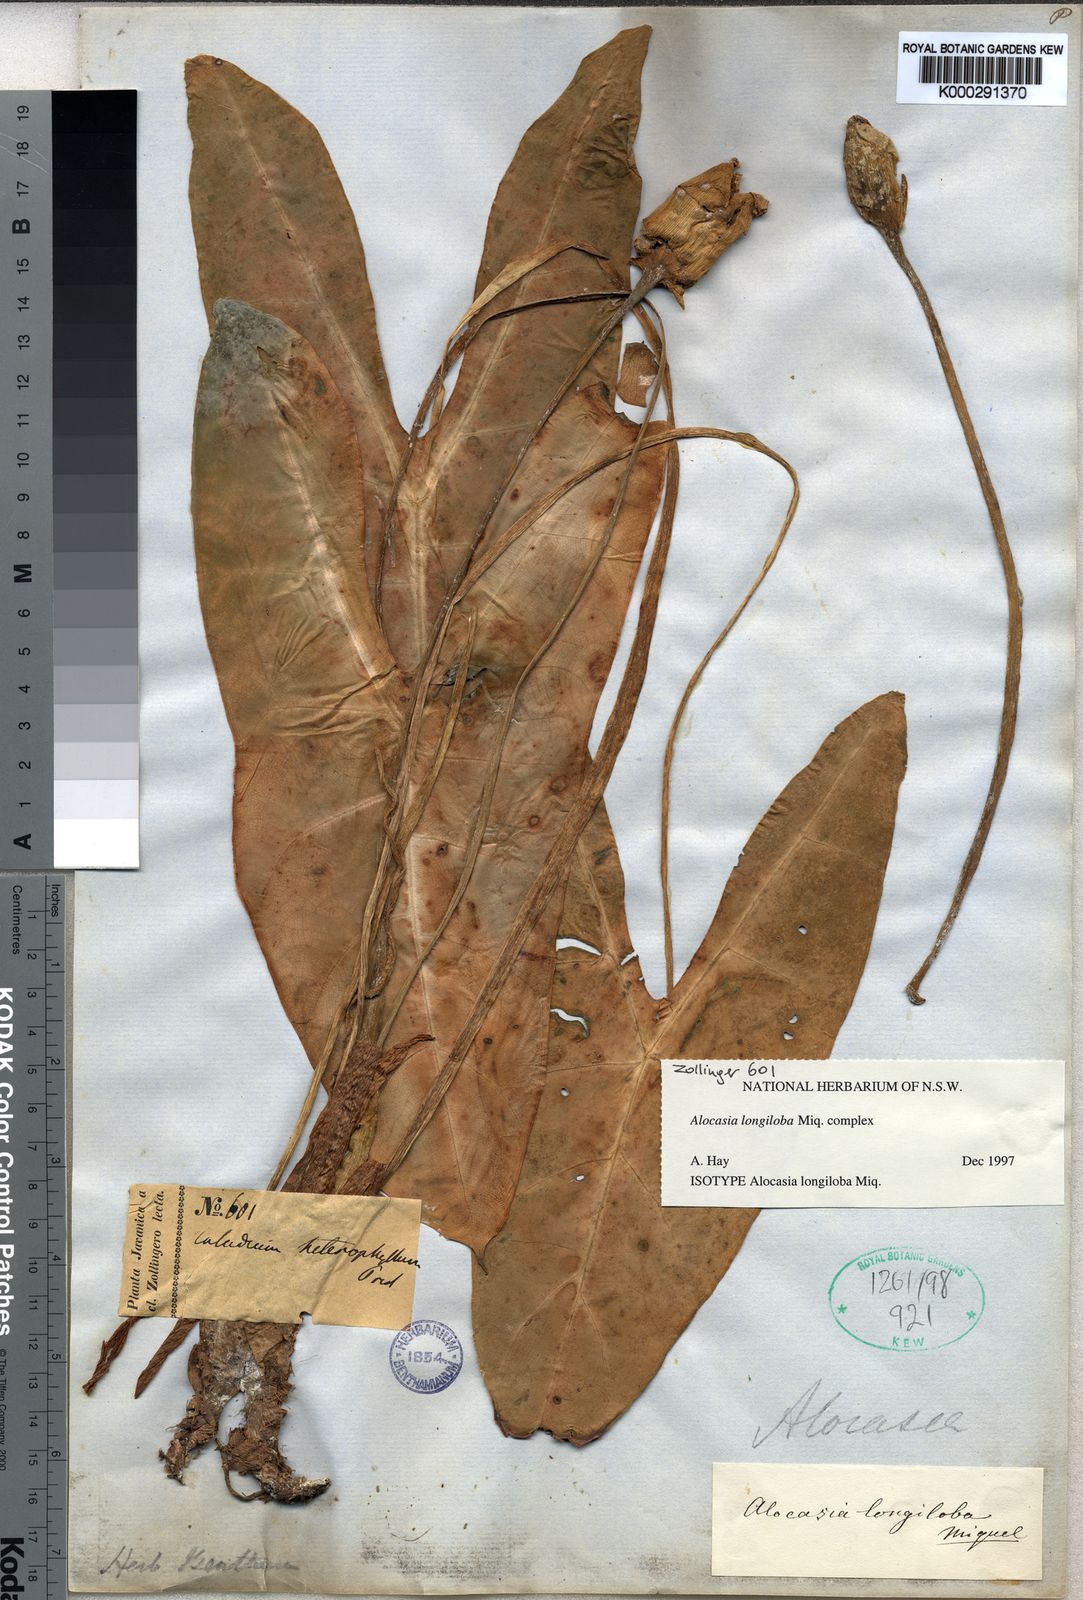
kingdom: Plantae
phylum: Tracheophyta
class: Liliopsida
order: Alismatales
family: Araceae
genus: Alocasia
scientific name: Alocasia longiloba
